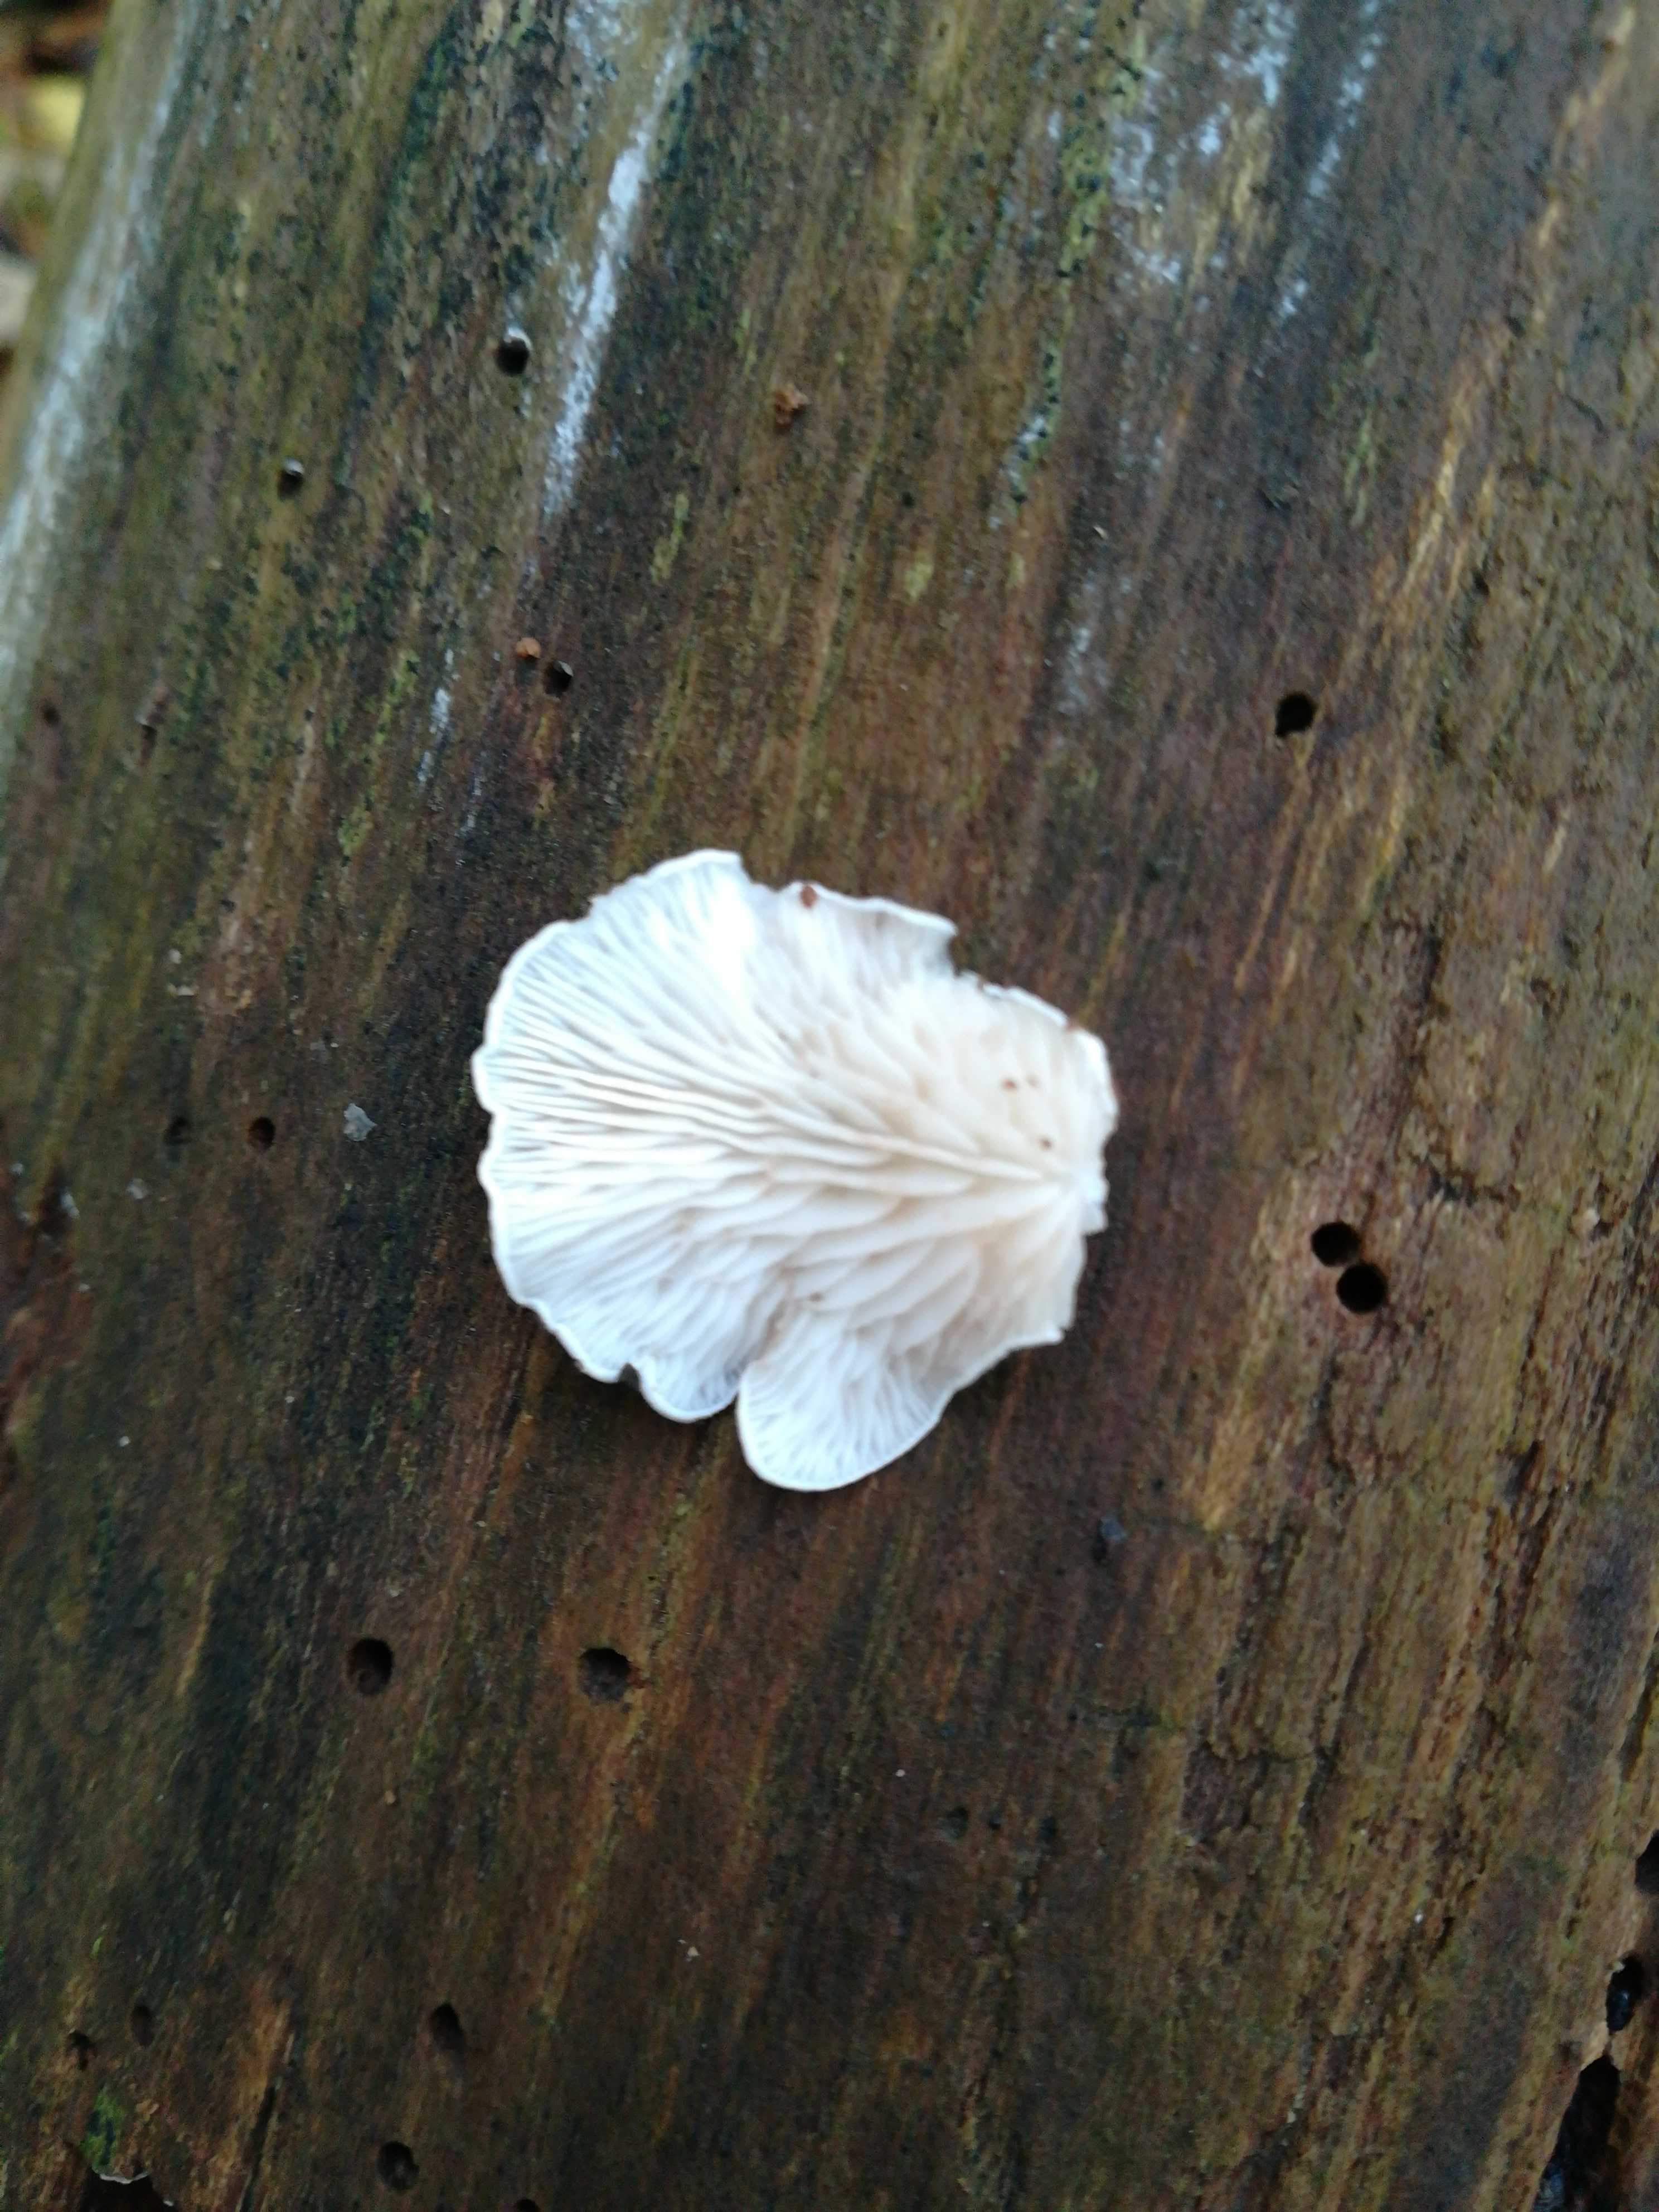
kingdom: Fungi
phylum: Basidiomycota
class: Agaricomycetes
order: Agaricales
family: Entolomataceae
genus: Clitopilus
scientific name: Clitopilus hobsonii
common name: Miller's oysterling
